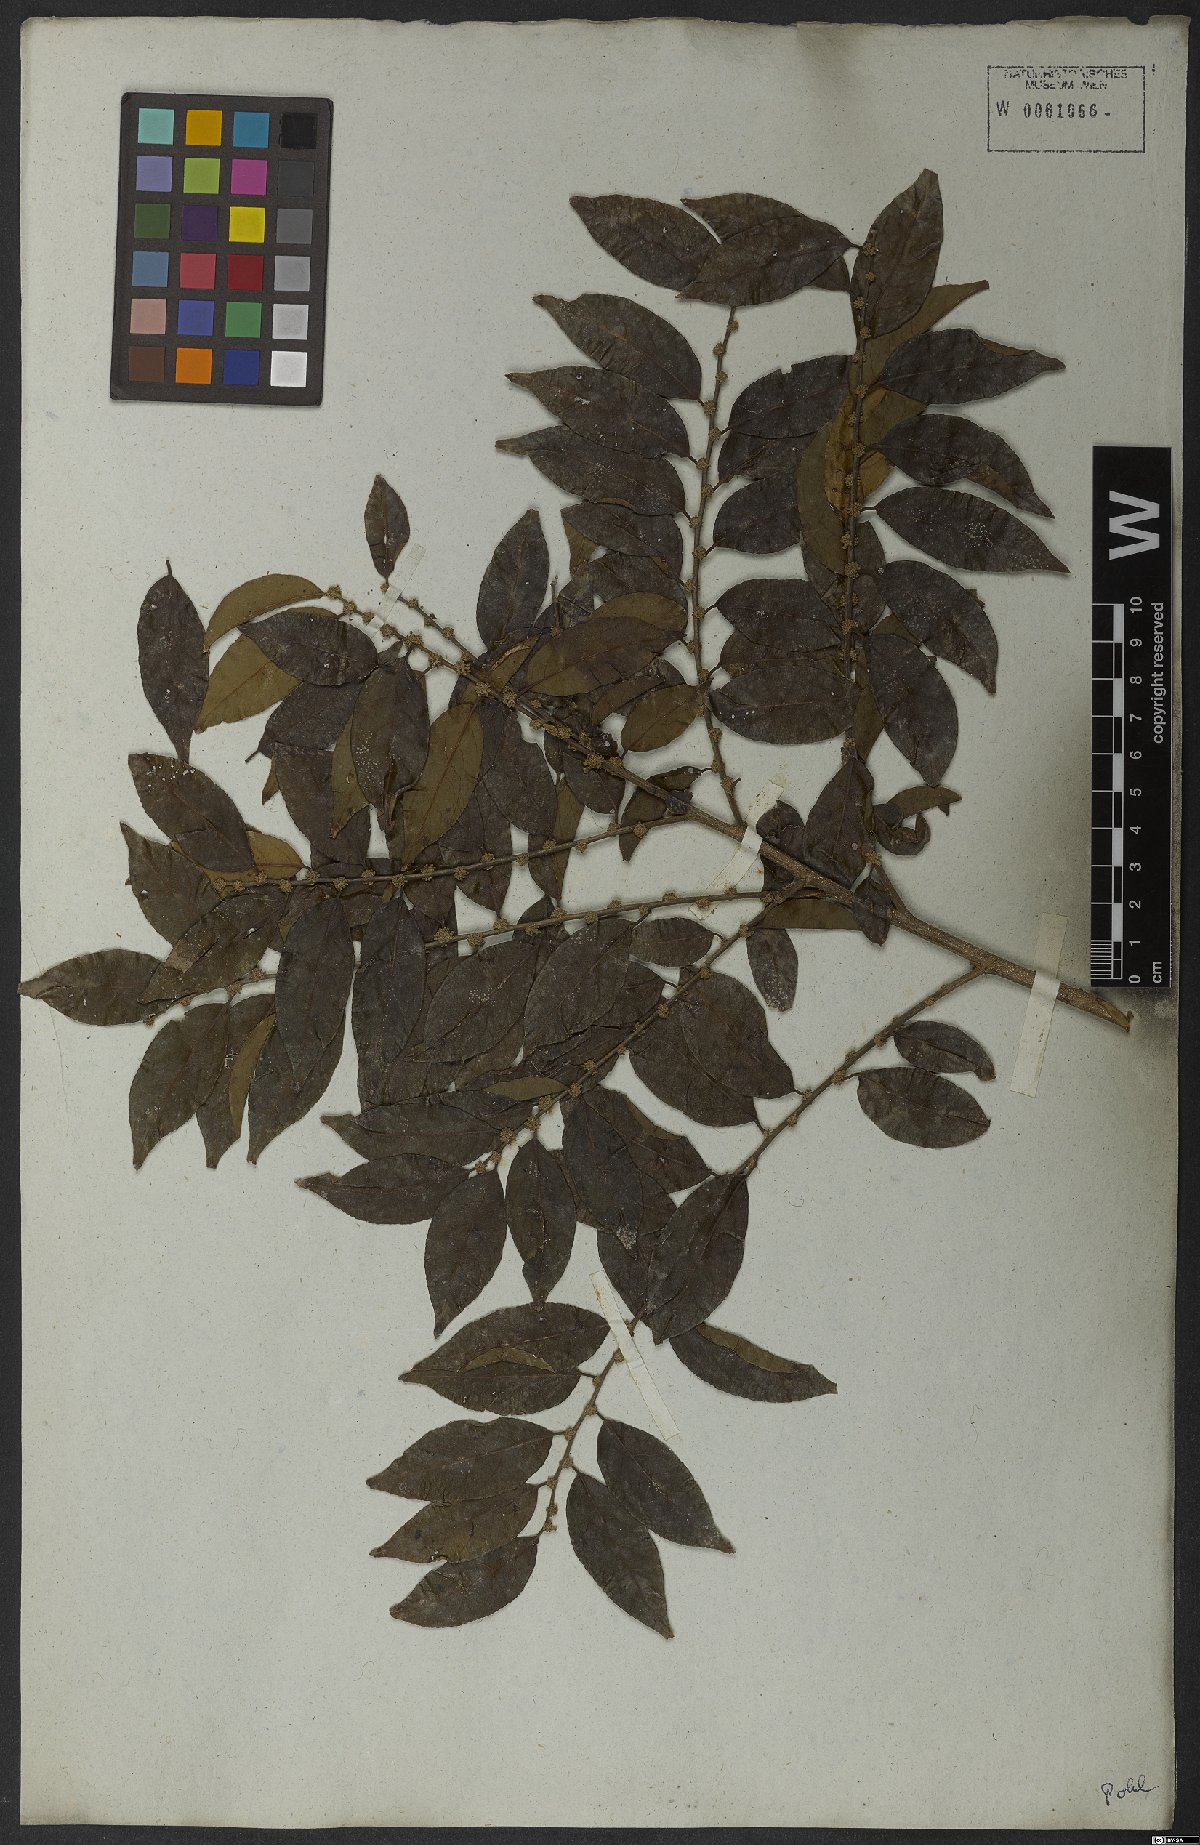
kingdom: Plantae
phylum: Tracheophyta
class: Magnoliopsida
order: Malpighiales
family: Salicaceae
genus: Casearia
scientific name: Casearia sylvestris
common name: Wild sage
